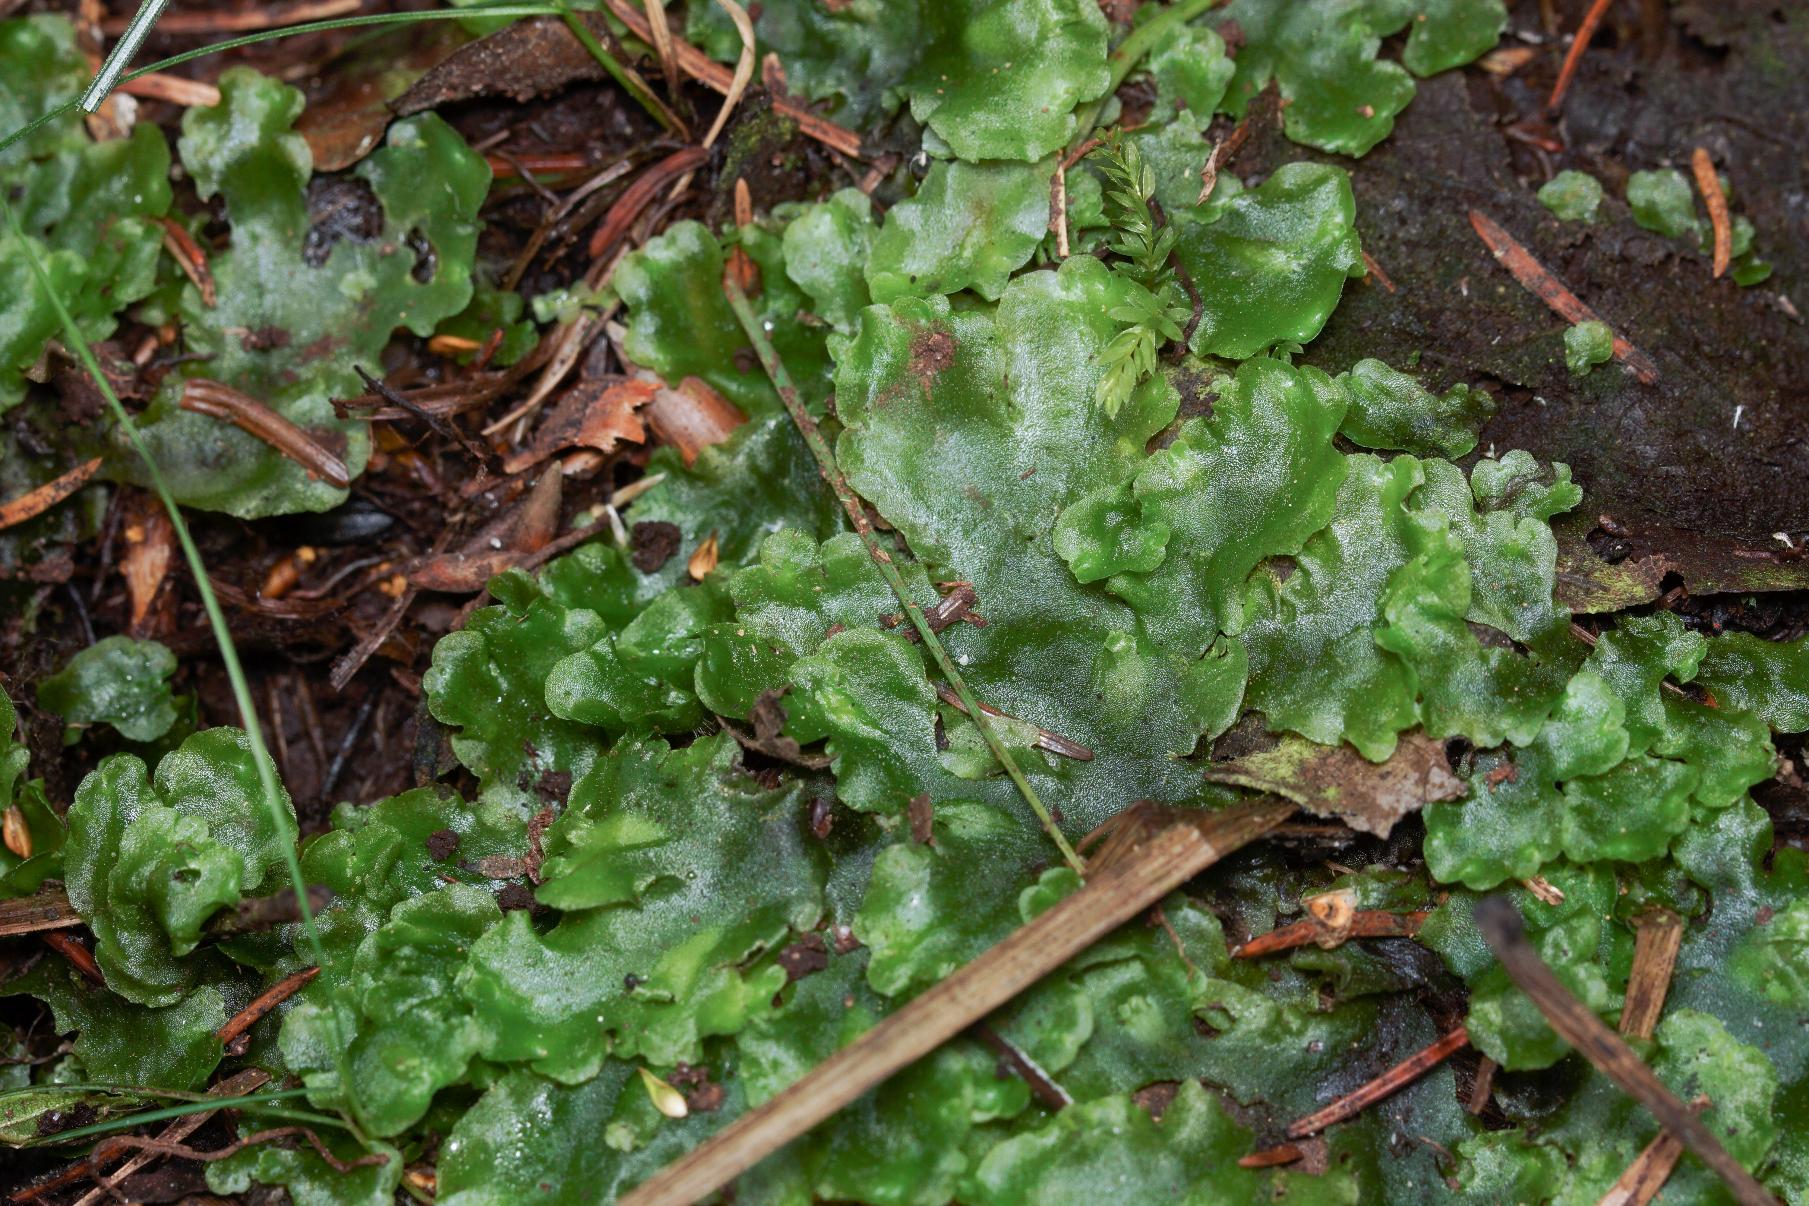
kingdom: Plantae
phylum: Marchantiophyta
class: Jungermanniopsida
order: Pelliales
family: Pelliaceae
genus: Pellia
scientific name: Pellia epiphylla
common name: Enbo ribbeløv
